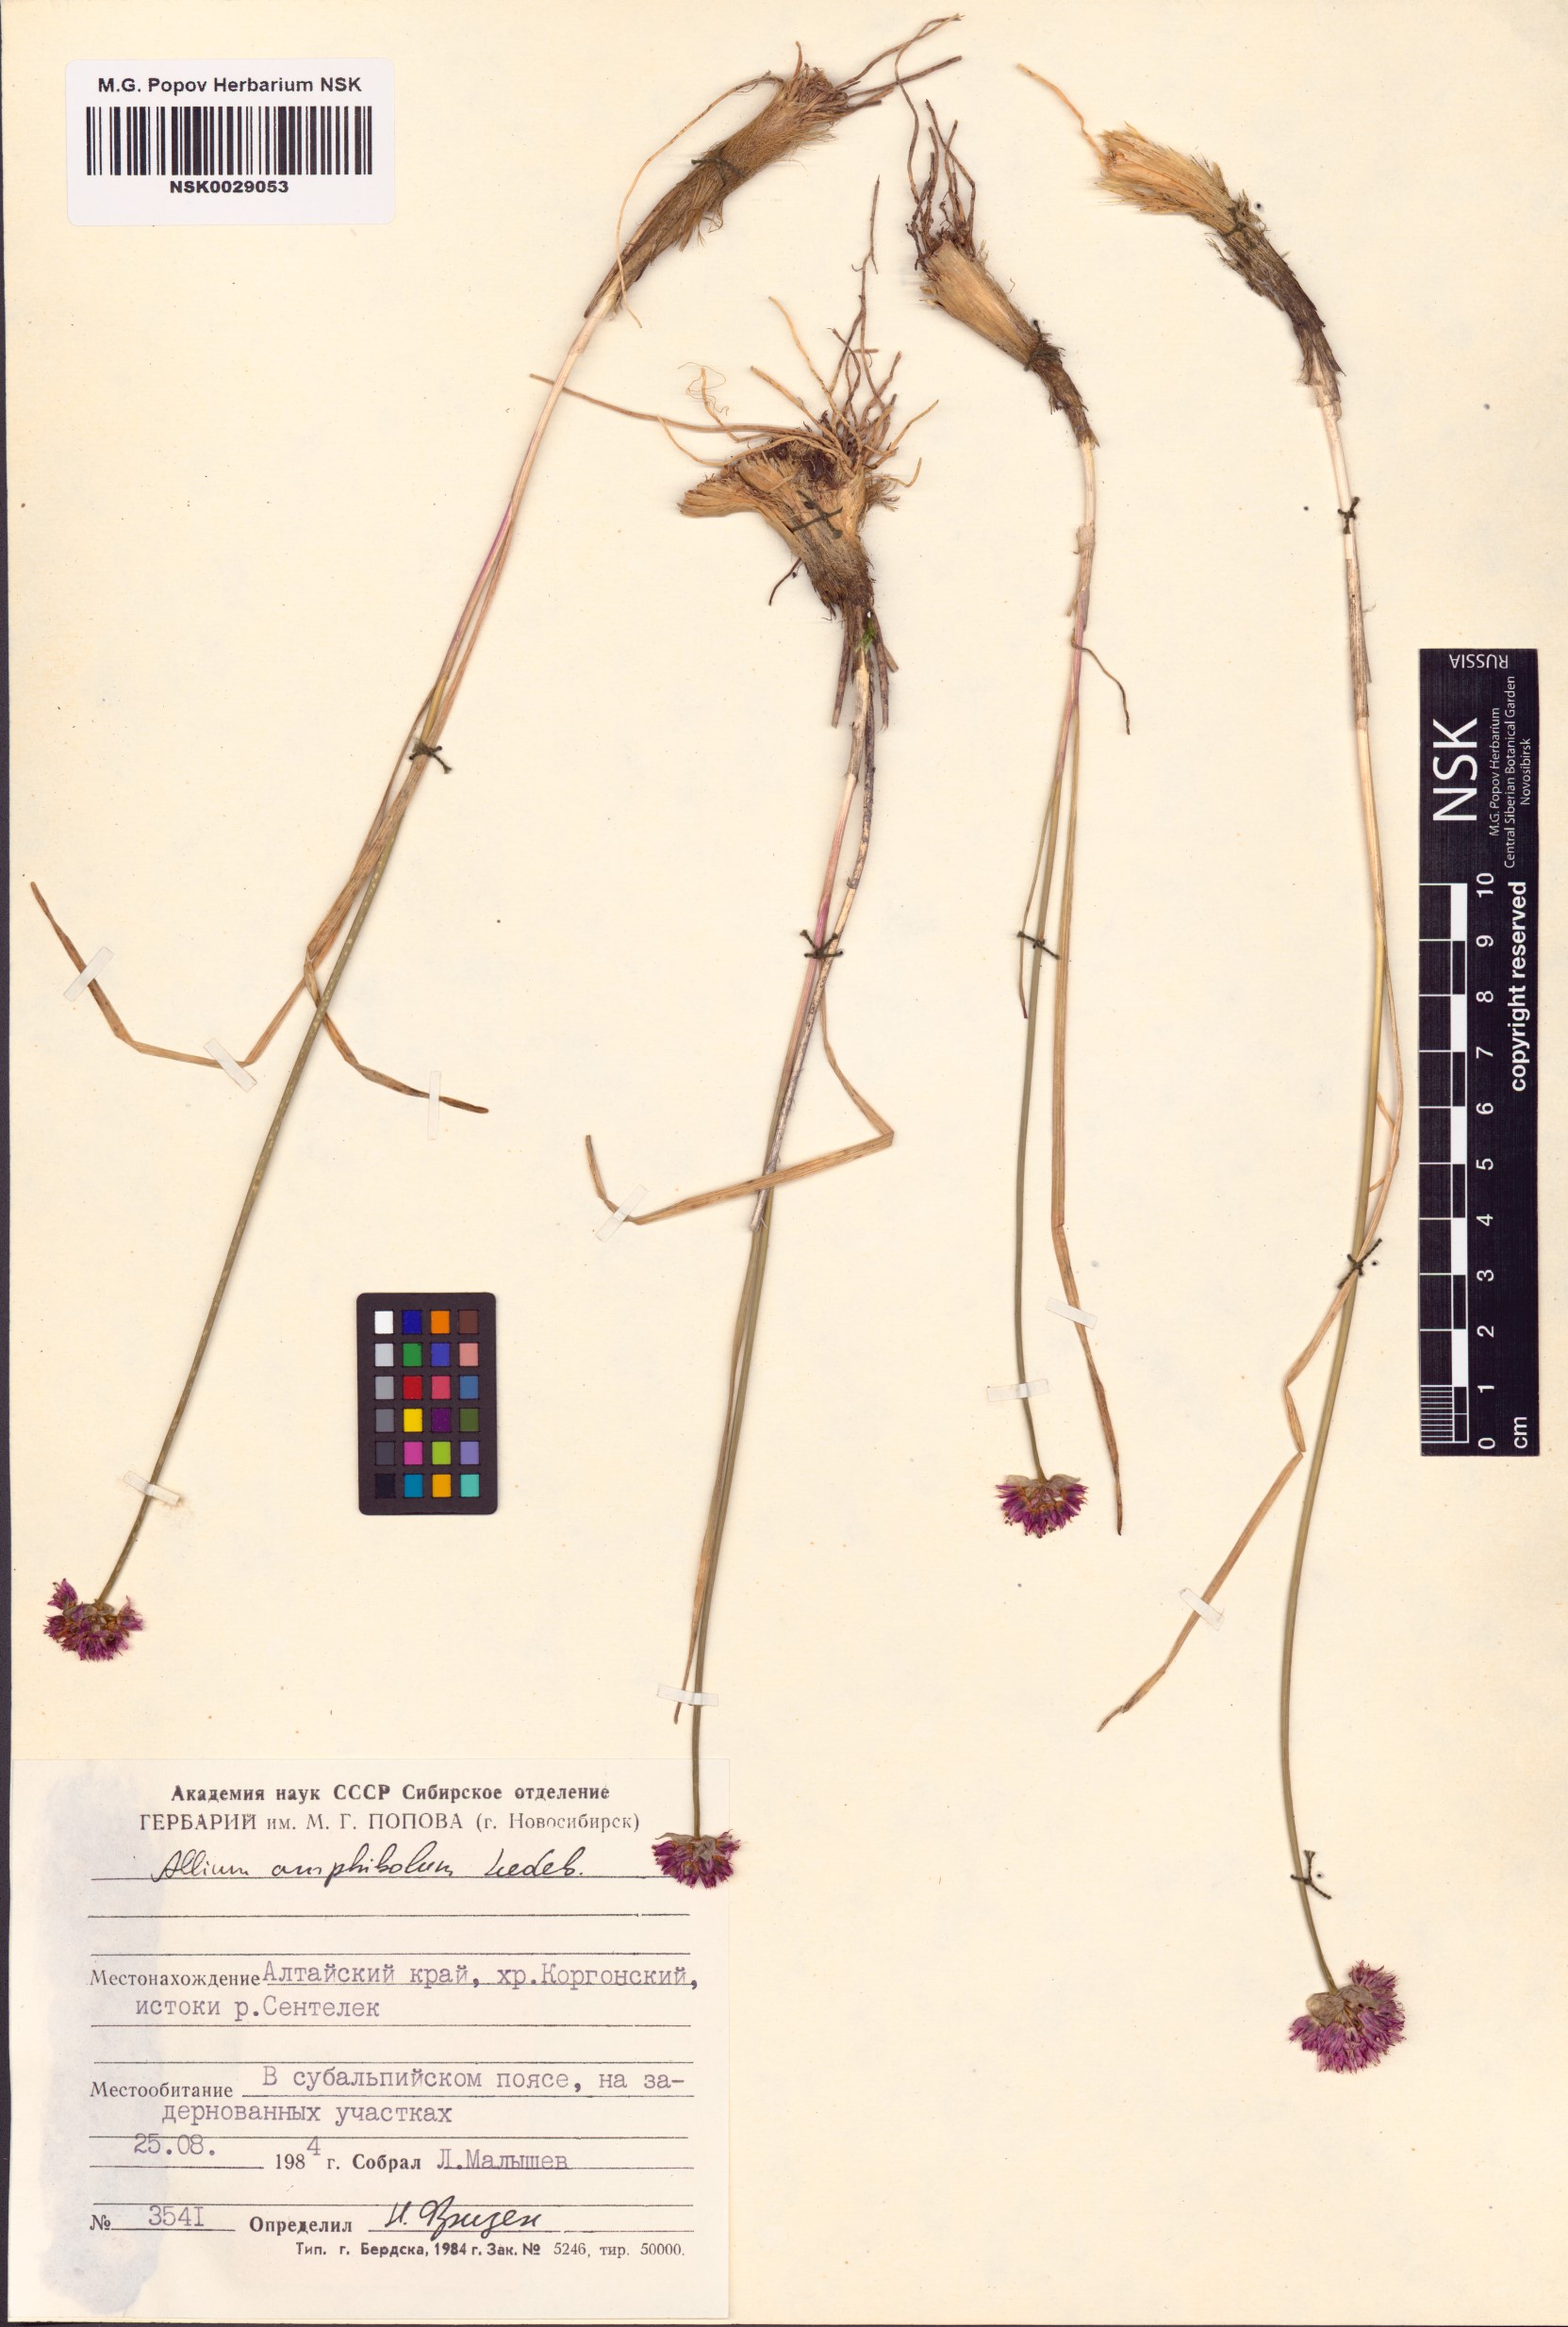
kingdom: Plantae
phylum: Tracheophyta
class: Liliopsida
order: Asparagales
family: Amaryllidaceae
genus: Allium
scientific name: Allium amphibolum
